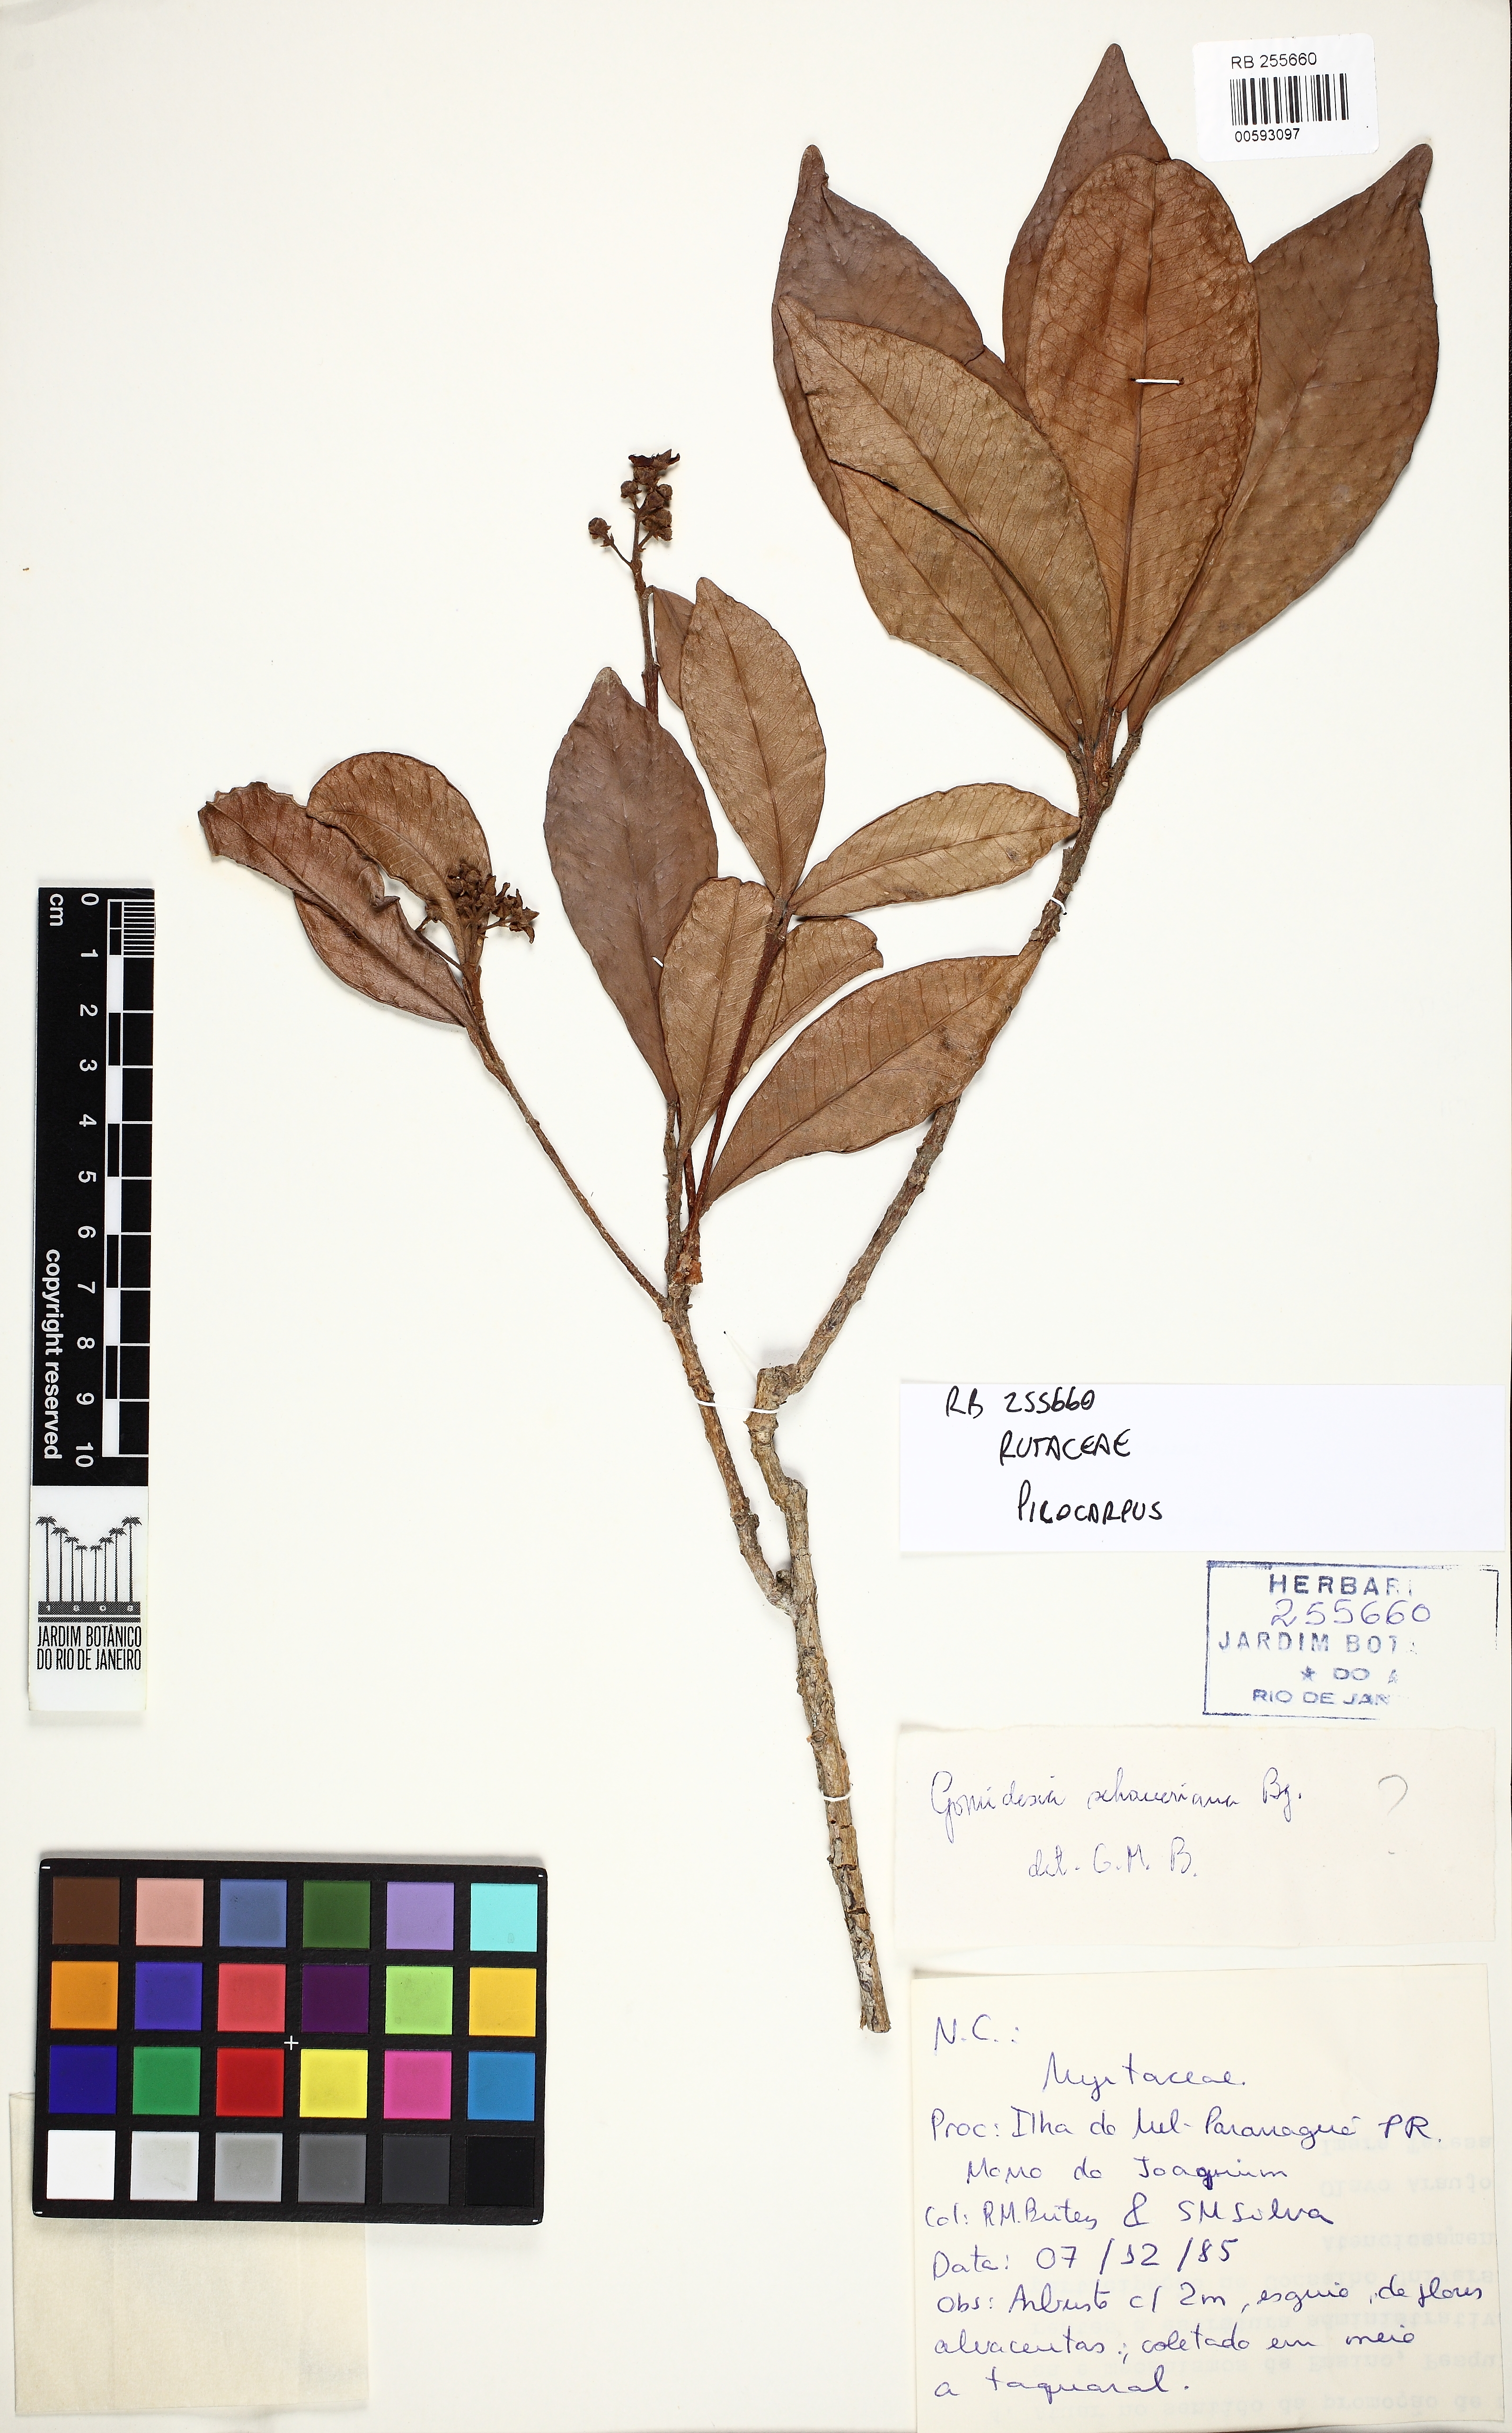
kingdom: Plantae
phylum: Tracheophyta
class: Magnoliopsida
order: Sapindales
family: Rutaceae
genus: Pilocarpus
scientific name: Pilocarpus
